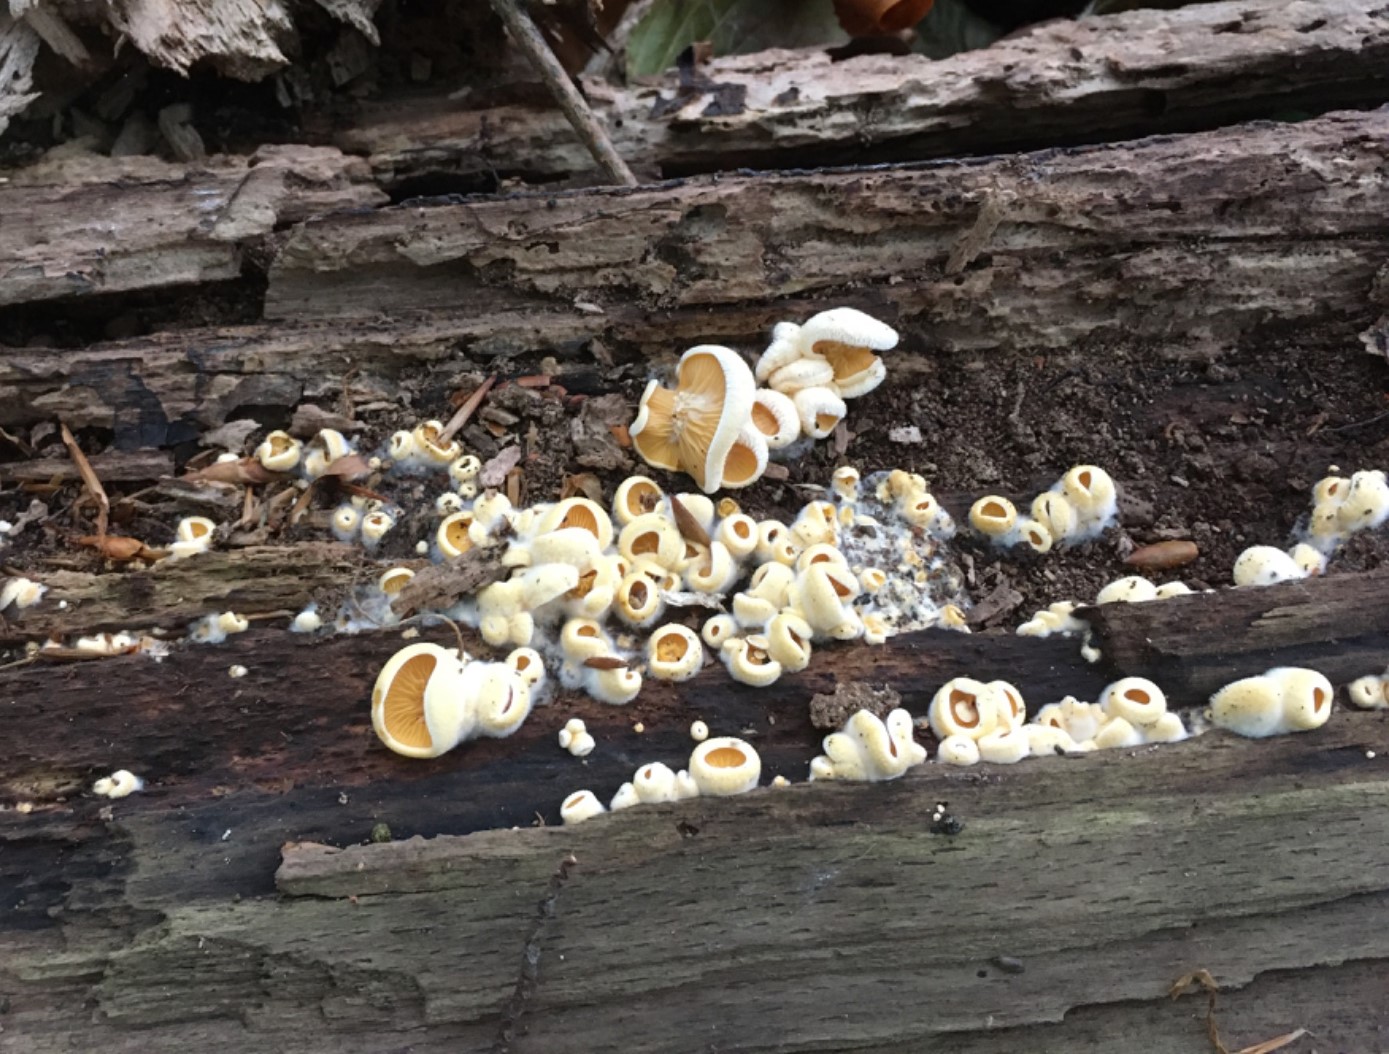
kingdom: Fungi
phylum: Basidiomycota
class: Agaricomycetes
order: Agaricales
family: Phyllotopsidaceae
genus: Phyllotopsis
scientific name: Phyllotopsis nidulans
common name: okkerblad
